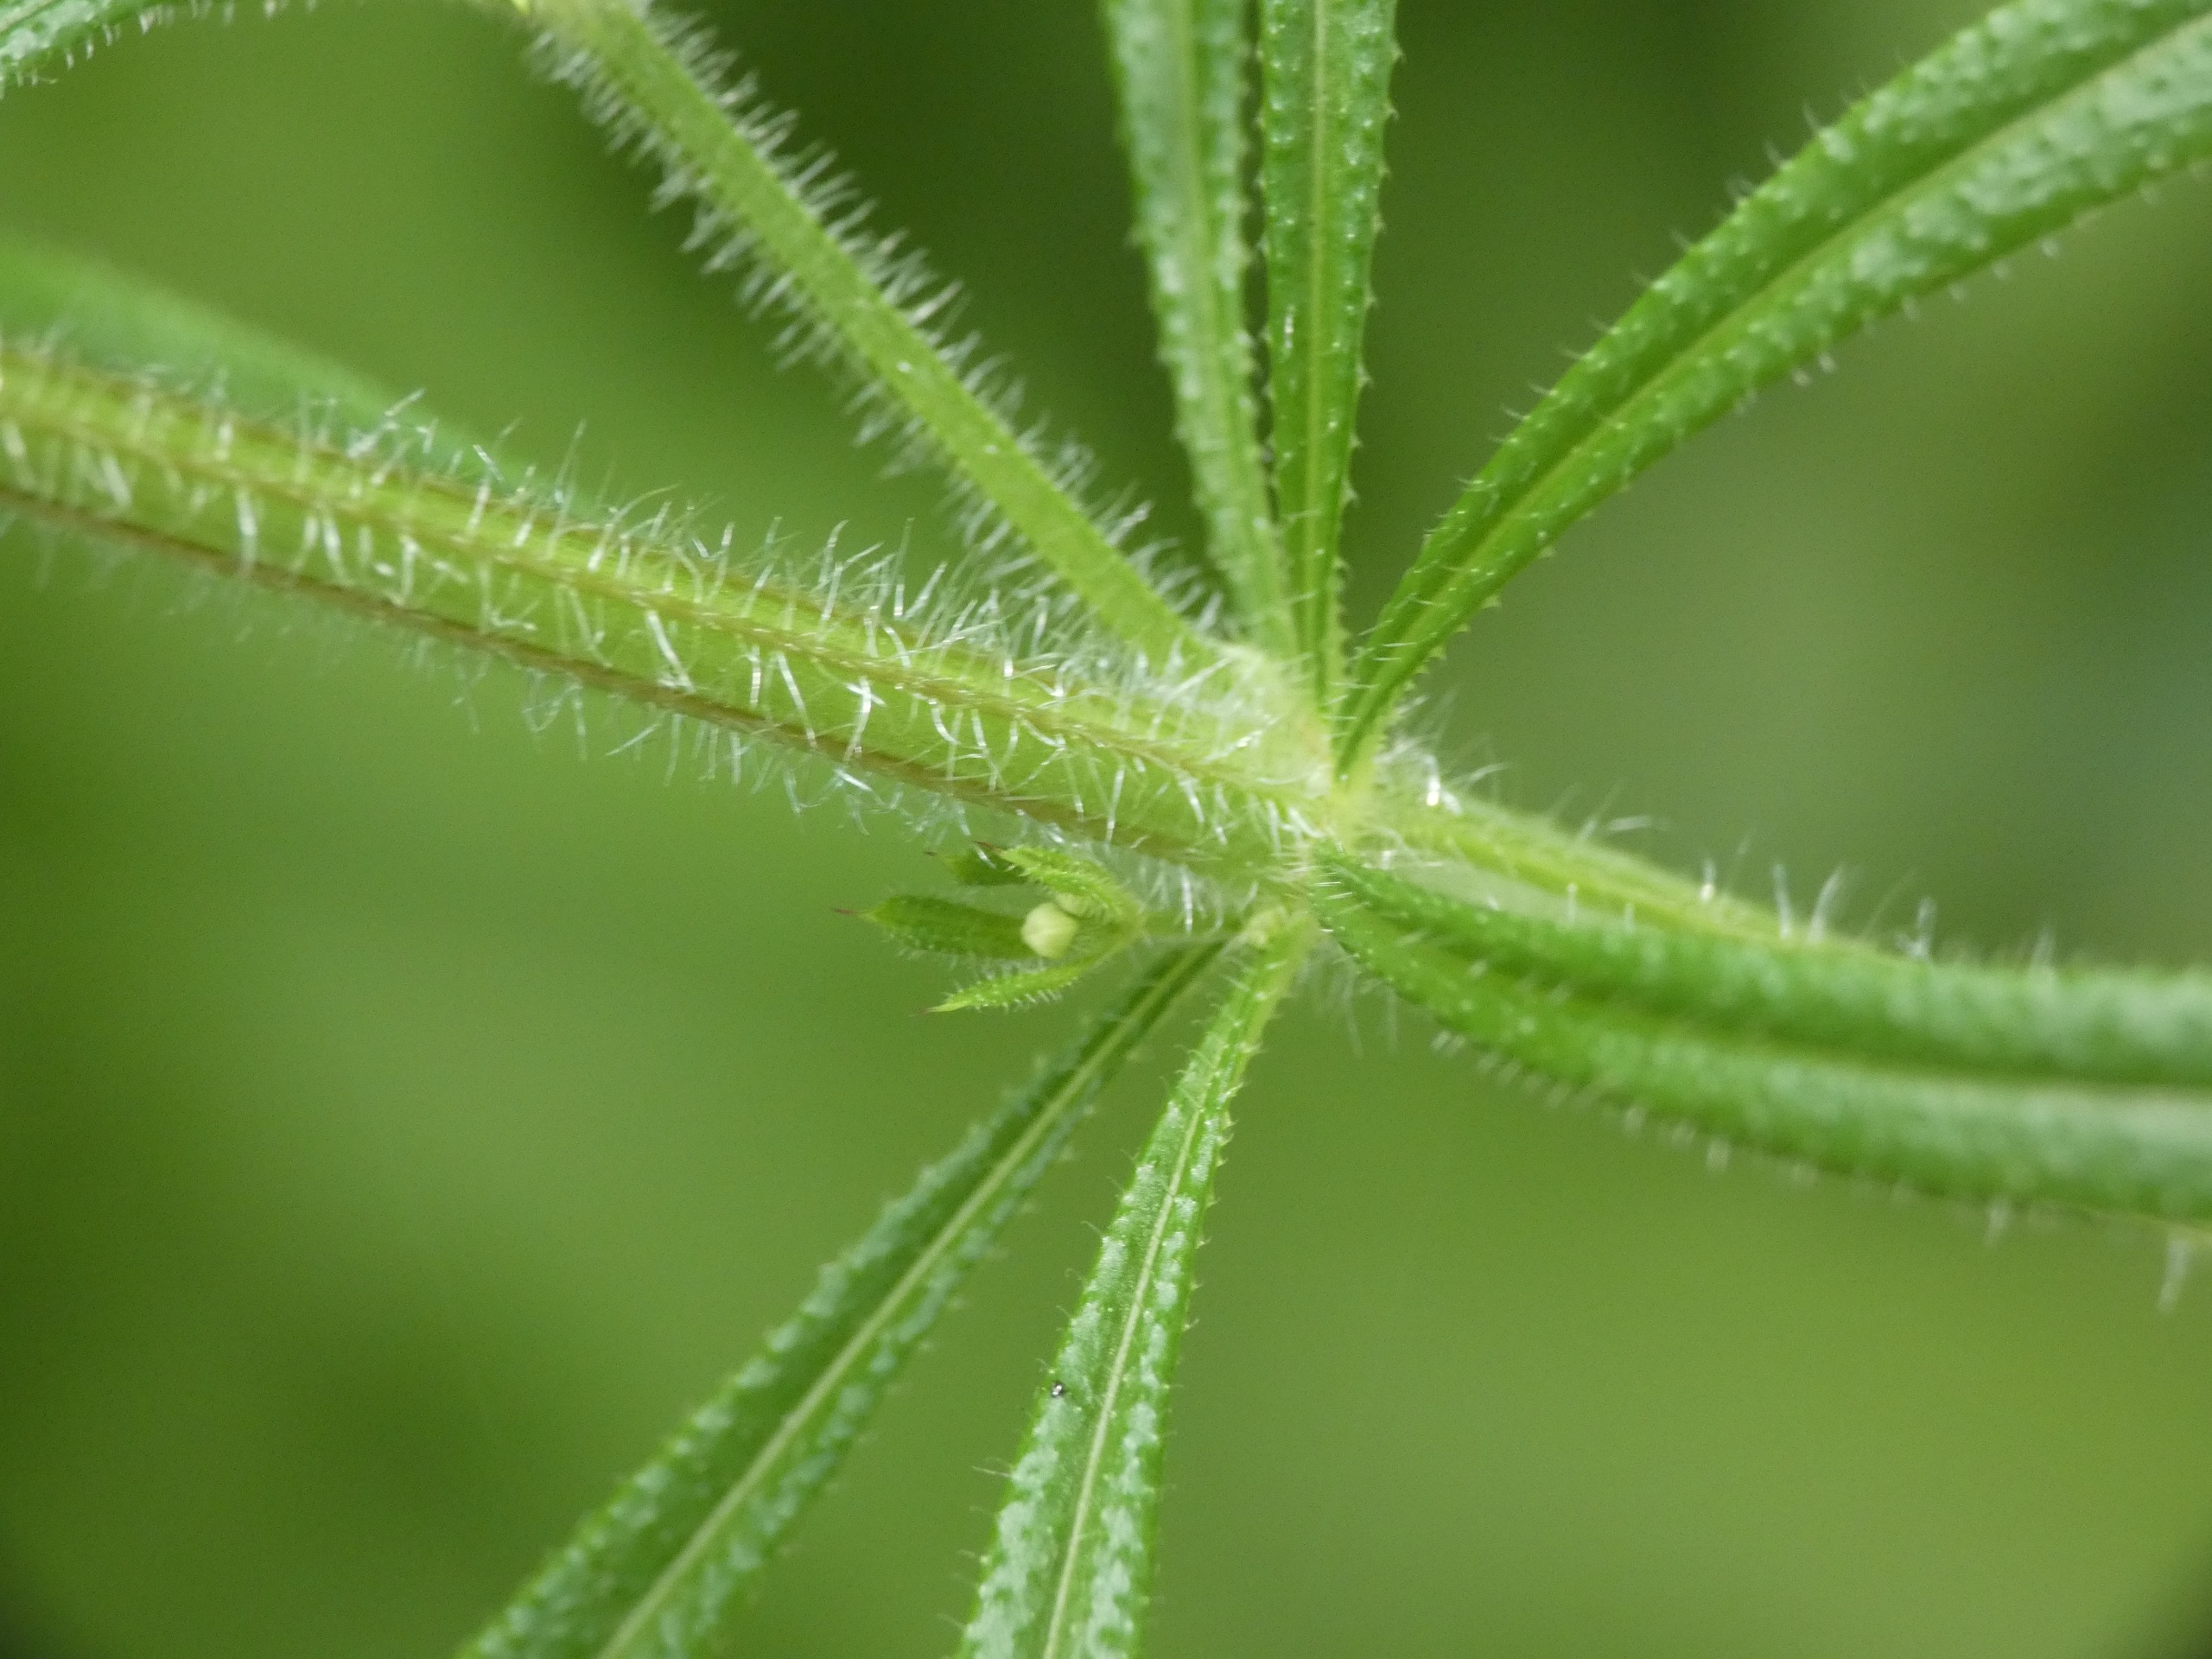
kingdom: Plantae
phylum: Tracheophyta
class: Magnoliopsida
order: Gentianales
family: Rubiaceae
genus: Galium
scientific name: Galium aparine
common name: Burre-snerre
